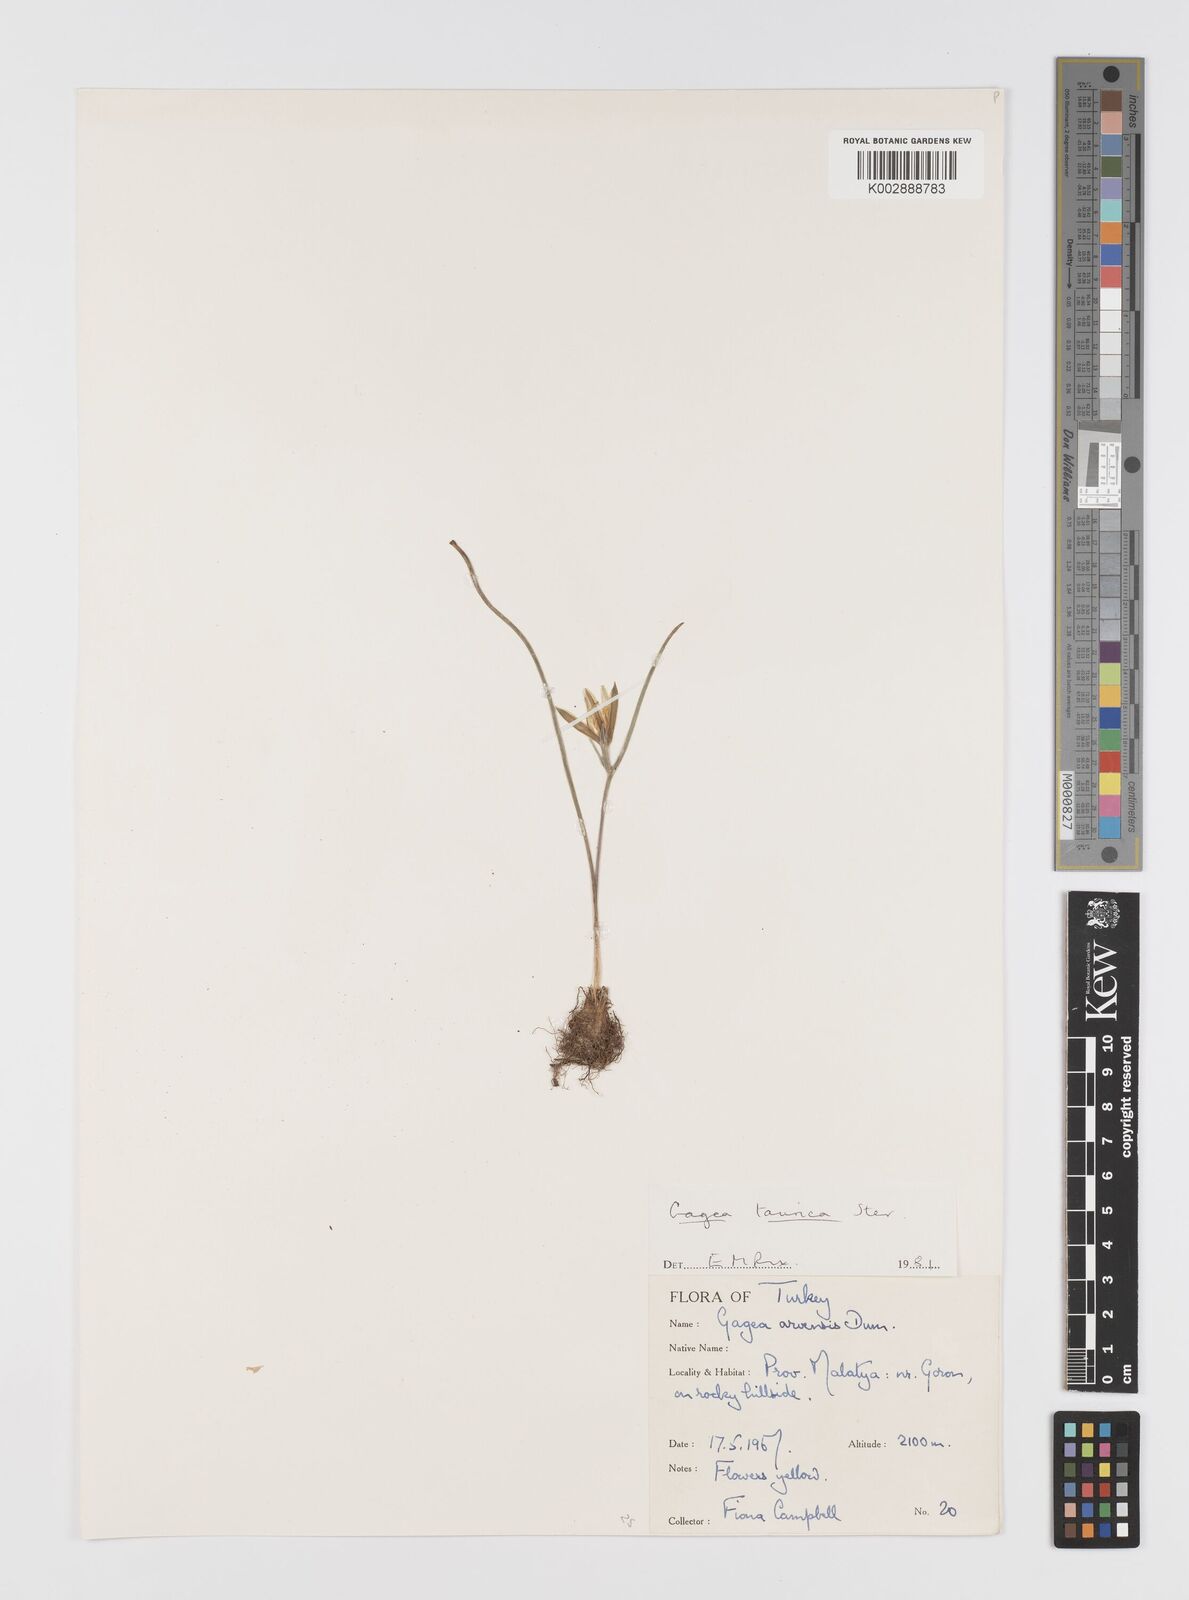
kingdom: Plantae
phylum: Tracheophyta
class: Liliopsida
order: Liliales
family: Liliaceae
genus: Gagea
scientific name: Gagea taurica
